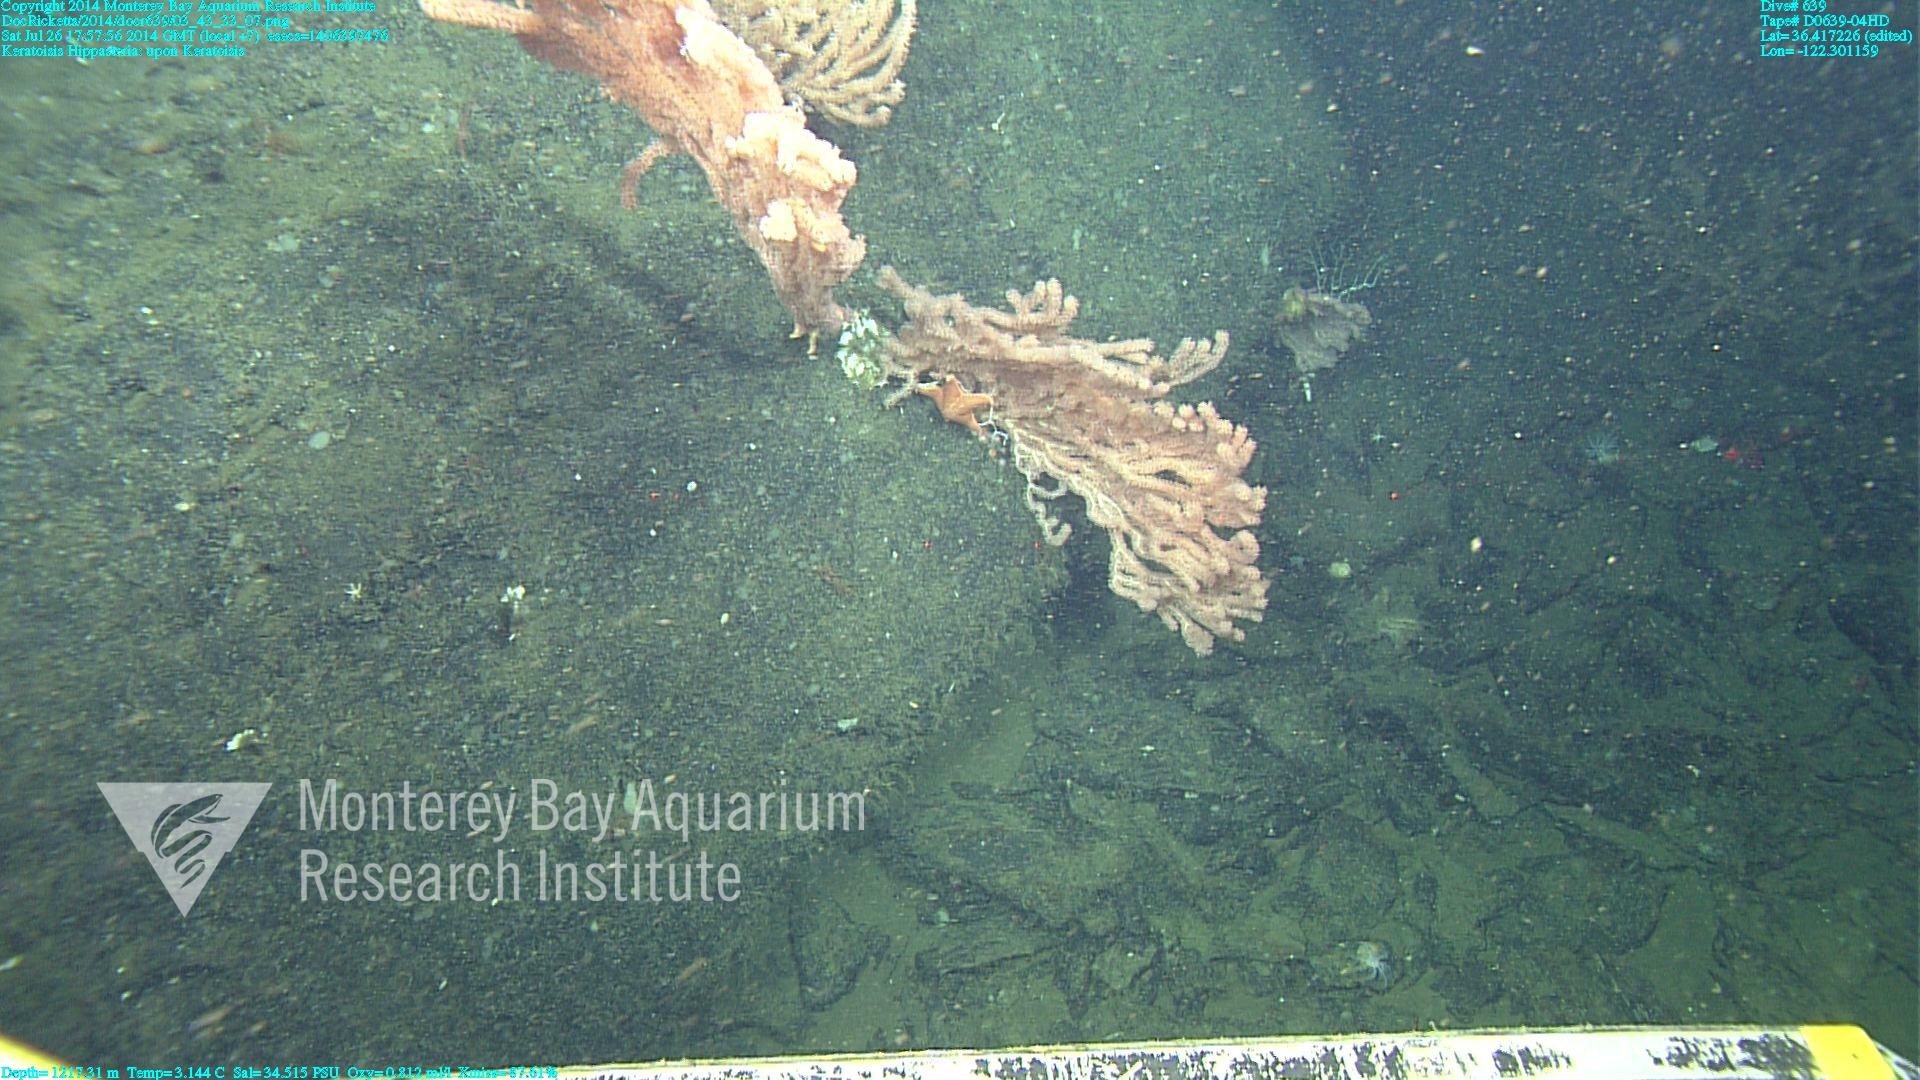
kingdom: Animalia
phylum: Cnidaria
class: Anthozoa
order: Scleralcyonacea
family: Keratoisididae
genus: Keratoisis
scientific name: Keratoisis
